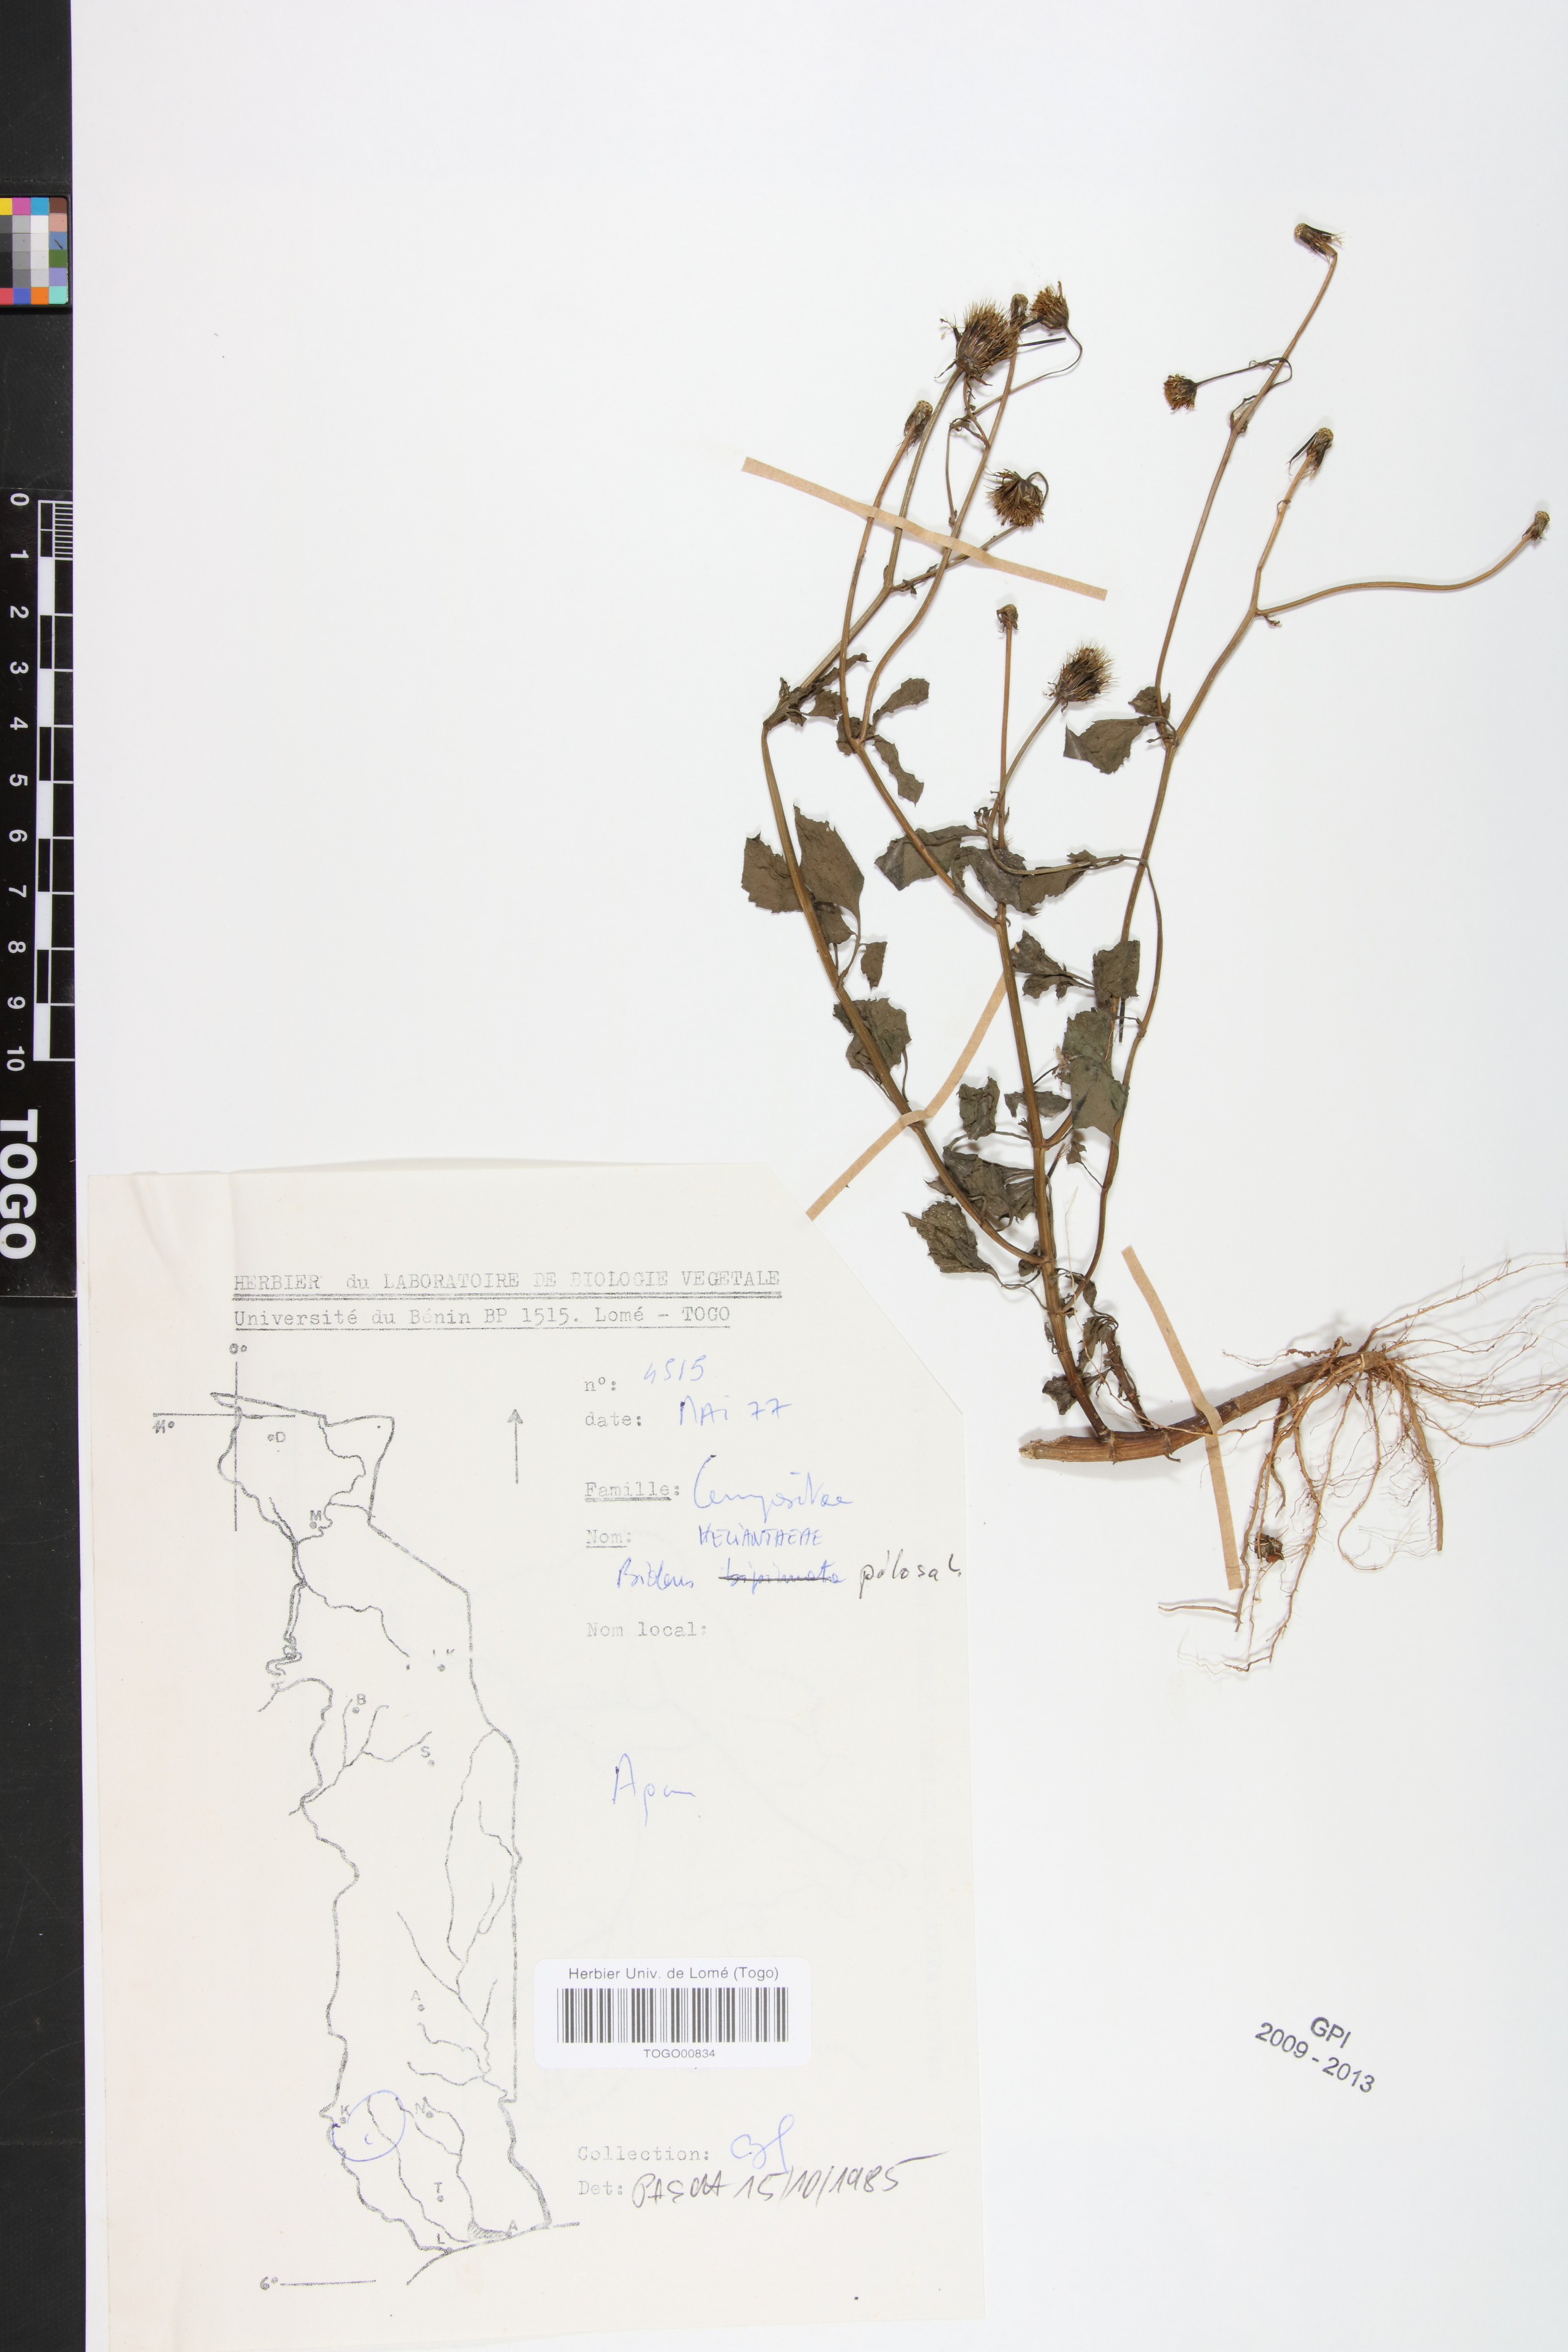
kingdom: Plantae
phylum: Tracheophyta
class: Magnoliopsida
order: Asterales
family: Asteraceae
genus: Bidens
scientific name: Bidens pilosa
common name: Black-jack
